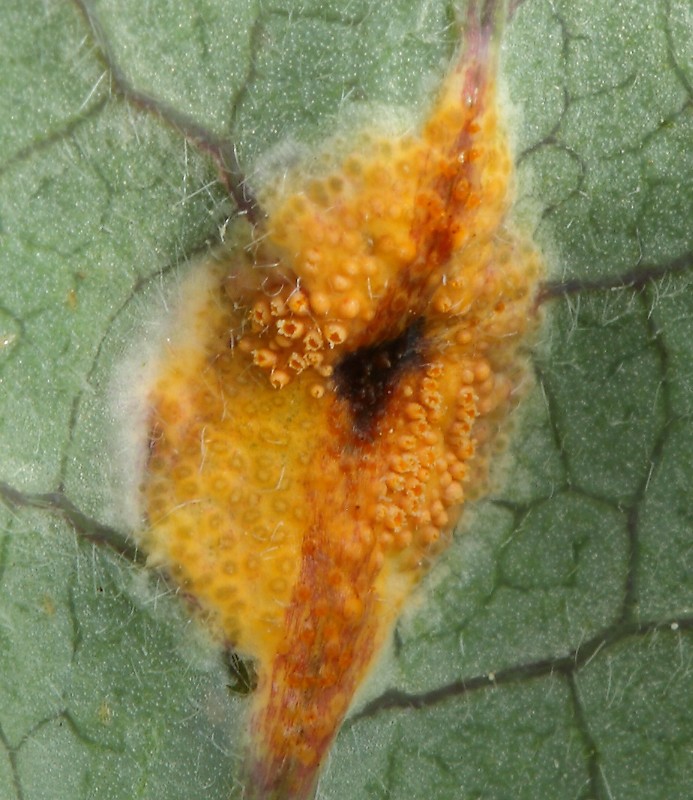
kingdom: Fungi
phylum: Basidiomycota
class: Pucciniomycetes
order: Pucciniales
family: Pucciniaceae
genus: Puccinia
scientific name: Puccinia festucae
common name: gedeblad-tvecellerust
